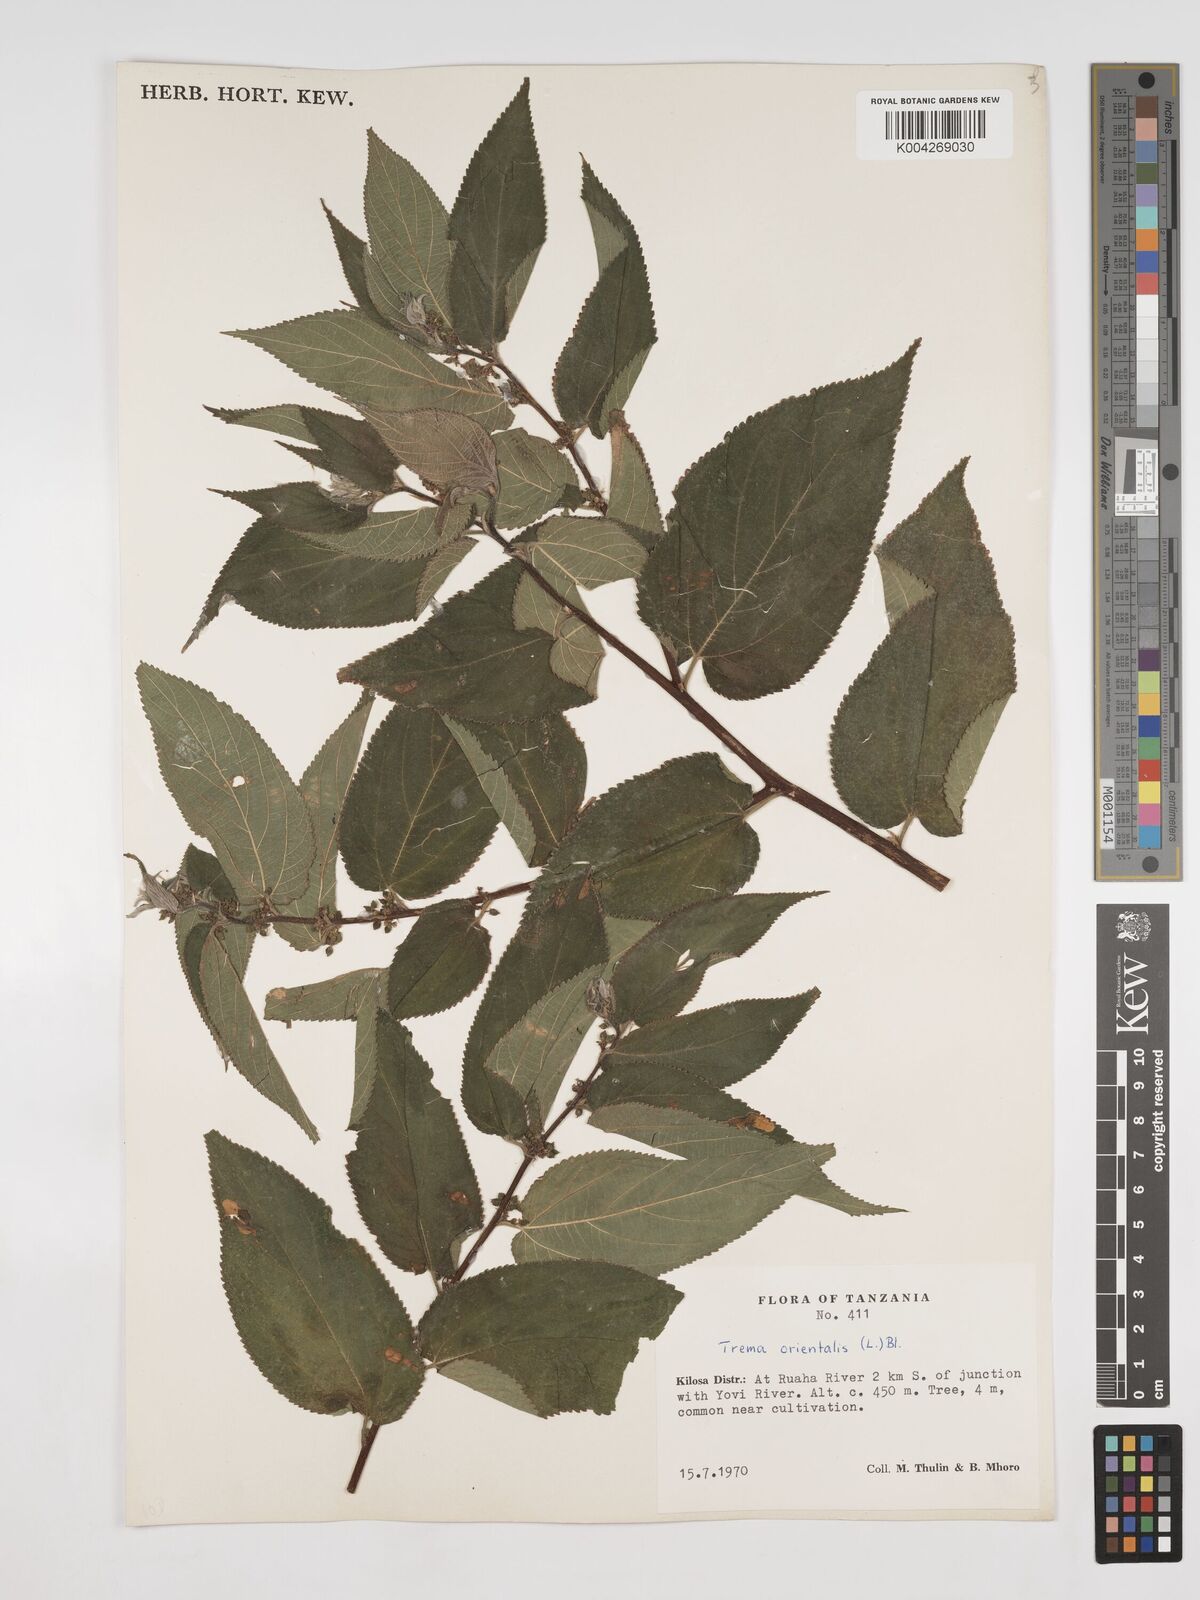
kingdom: Plantae
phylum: Tracheophyta
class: Magnoliopsida
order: Rosales
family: Cannabaceae
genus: Trema
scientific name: Trema orientale
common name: Indian charcoal tree
